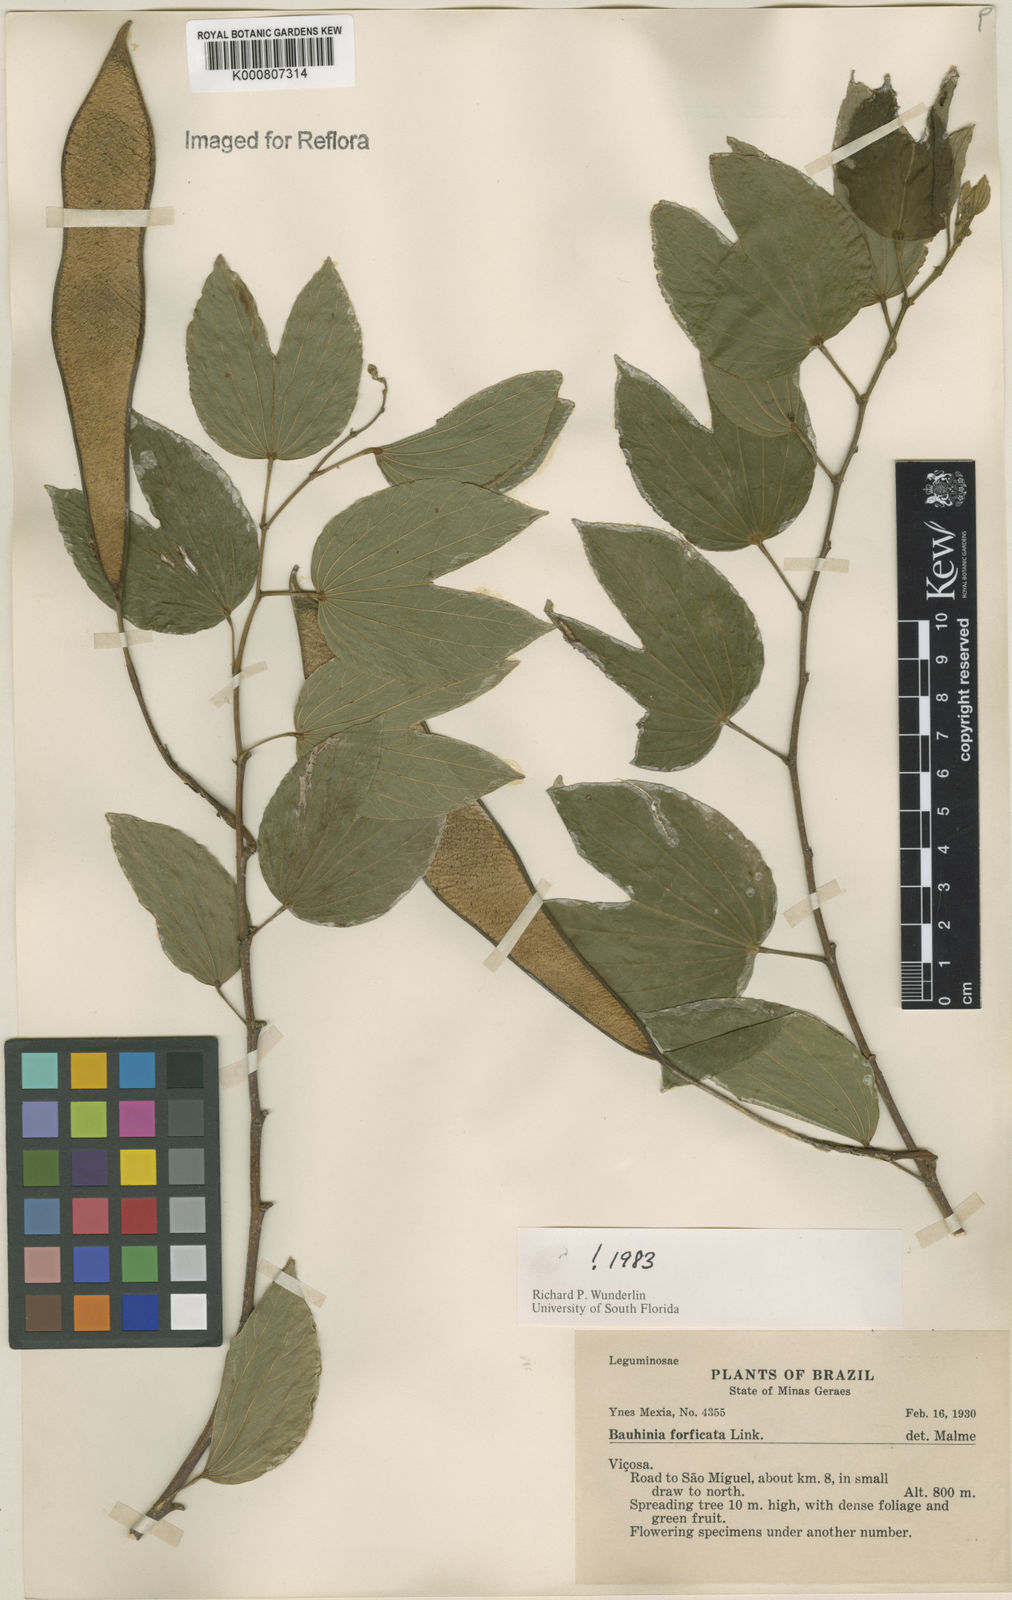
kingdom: Plantae
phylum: Tracheophyta
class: Magnoliopsida
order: Fabales
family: Fabaceae
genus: Bauhinia
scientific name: Bauhinia forficata
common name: Orchid tree
